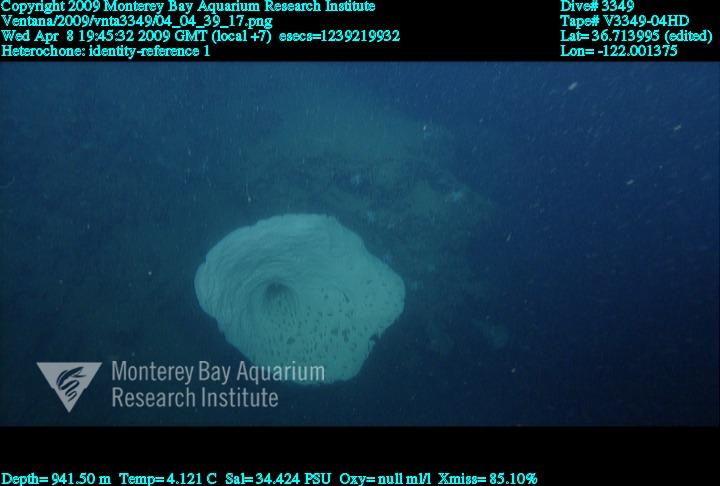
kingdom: Animalia
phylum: Porifera
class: Hexactinellida
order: Sceptrulophora
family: Aphrocallistidae
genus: Heterochone
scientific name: Heterochone
